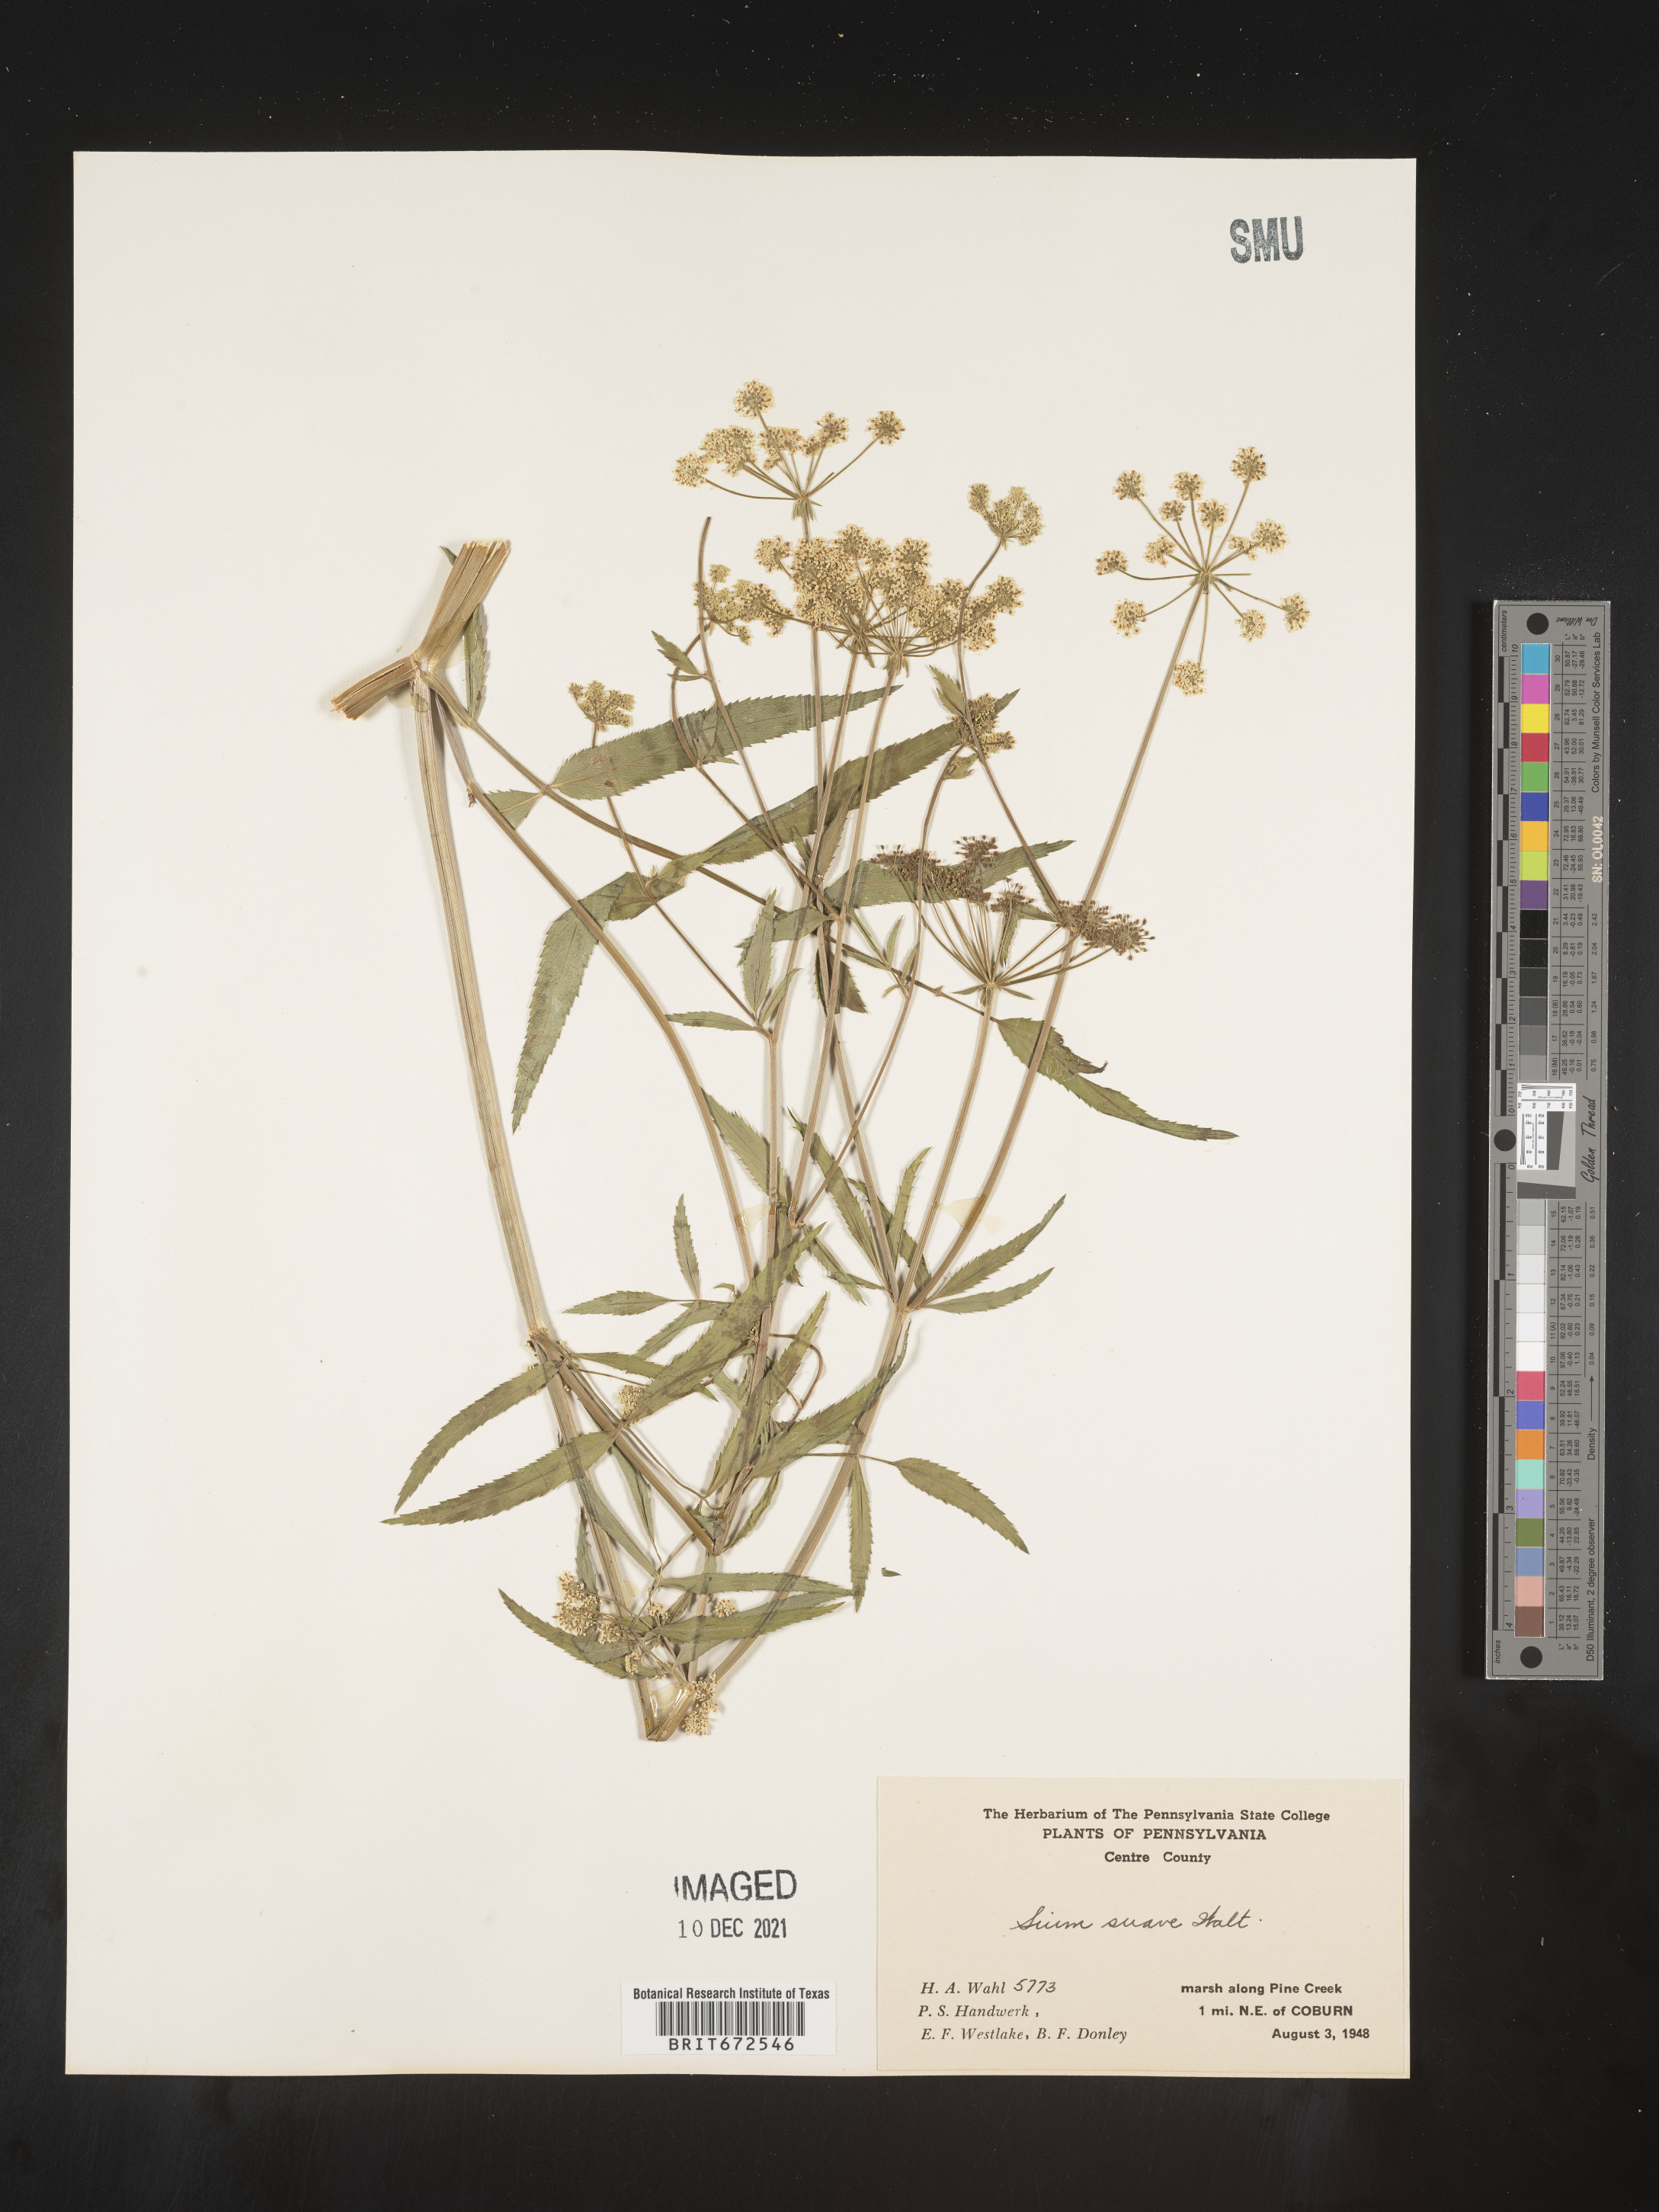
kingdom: Plantae
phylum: Tracheophyta
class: Magnoliopsida
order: Apiales
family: Apiaceae
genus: Sium
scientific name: Sium suave
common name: Hemlock water-parsnip
